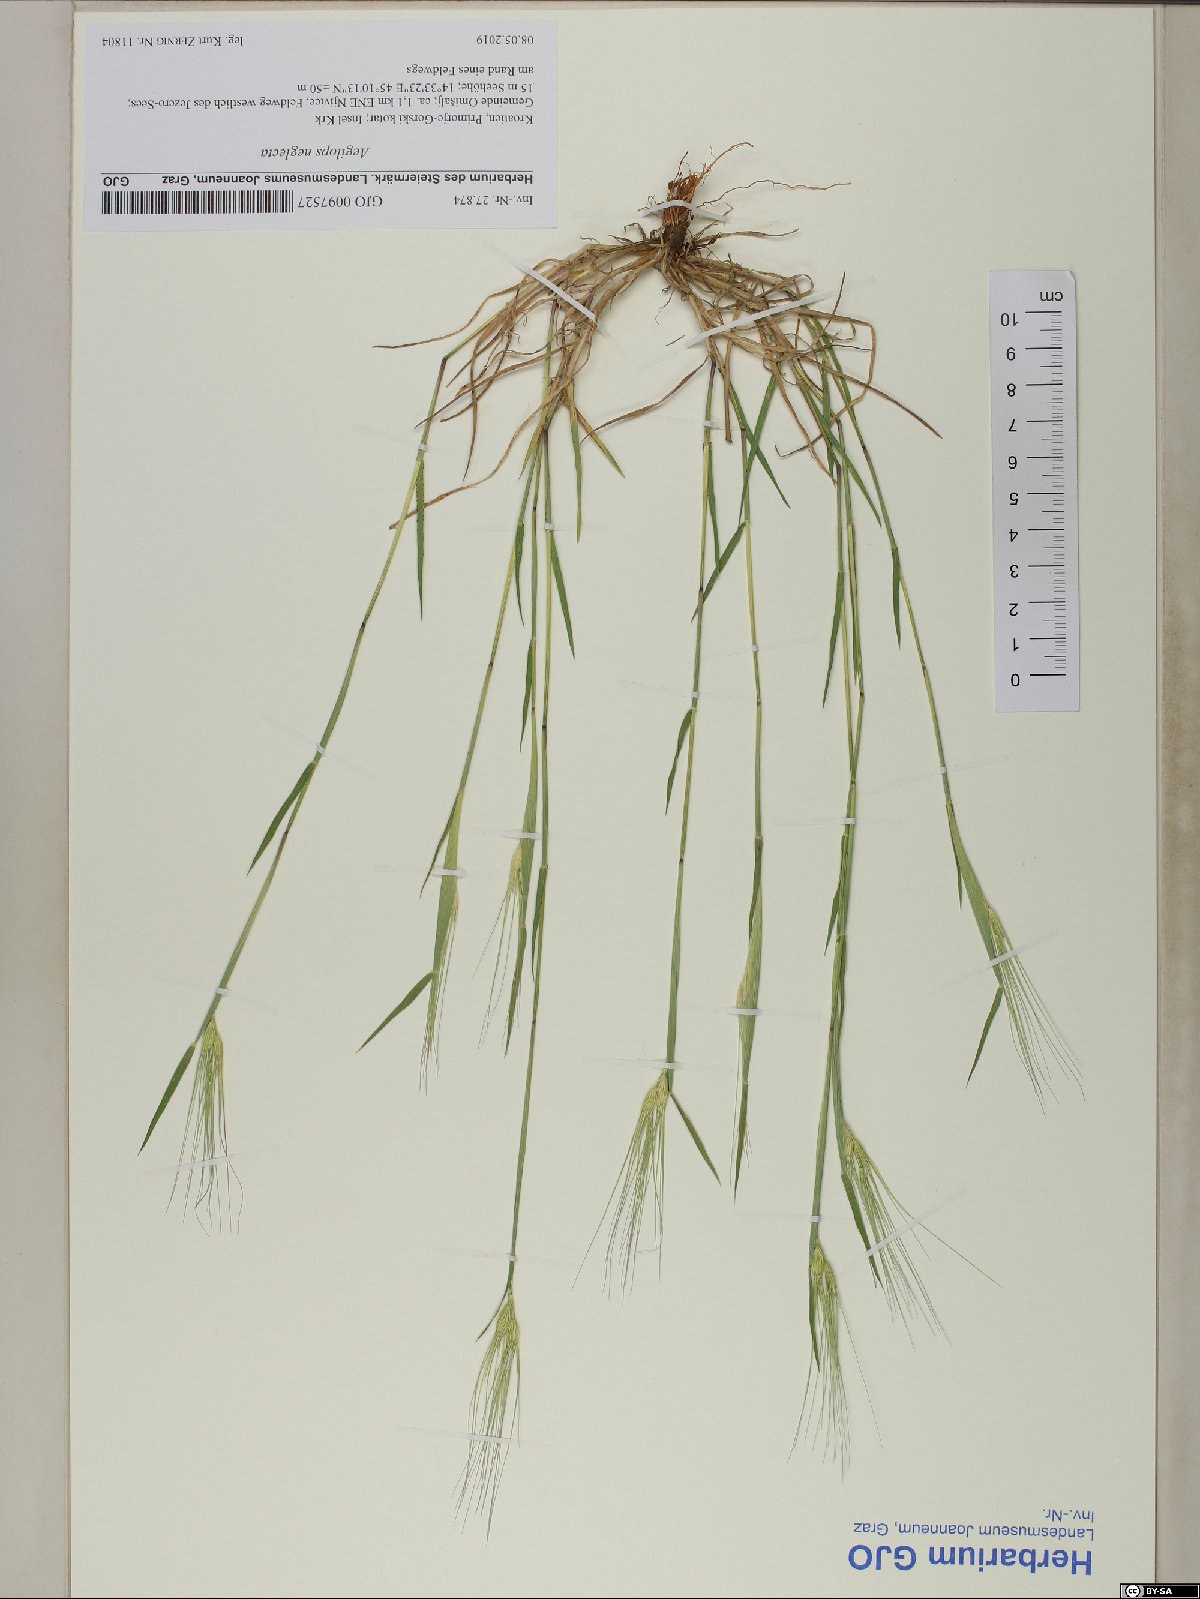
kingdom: Plantae
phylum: Tracheophyta
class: Liliopsida
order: Poales
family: Poaceae
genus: Aegilops
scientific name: Aegilops neglecta
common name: Three-awn goat grass
